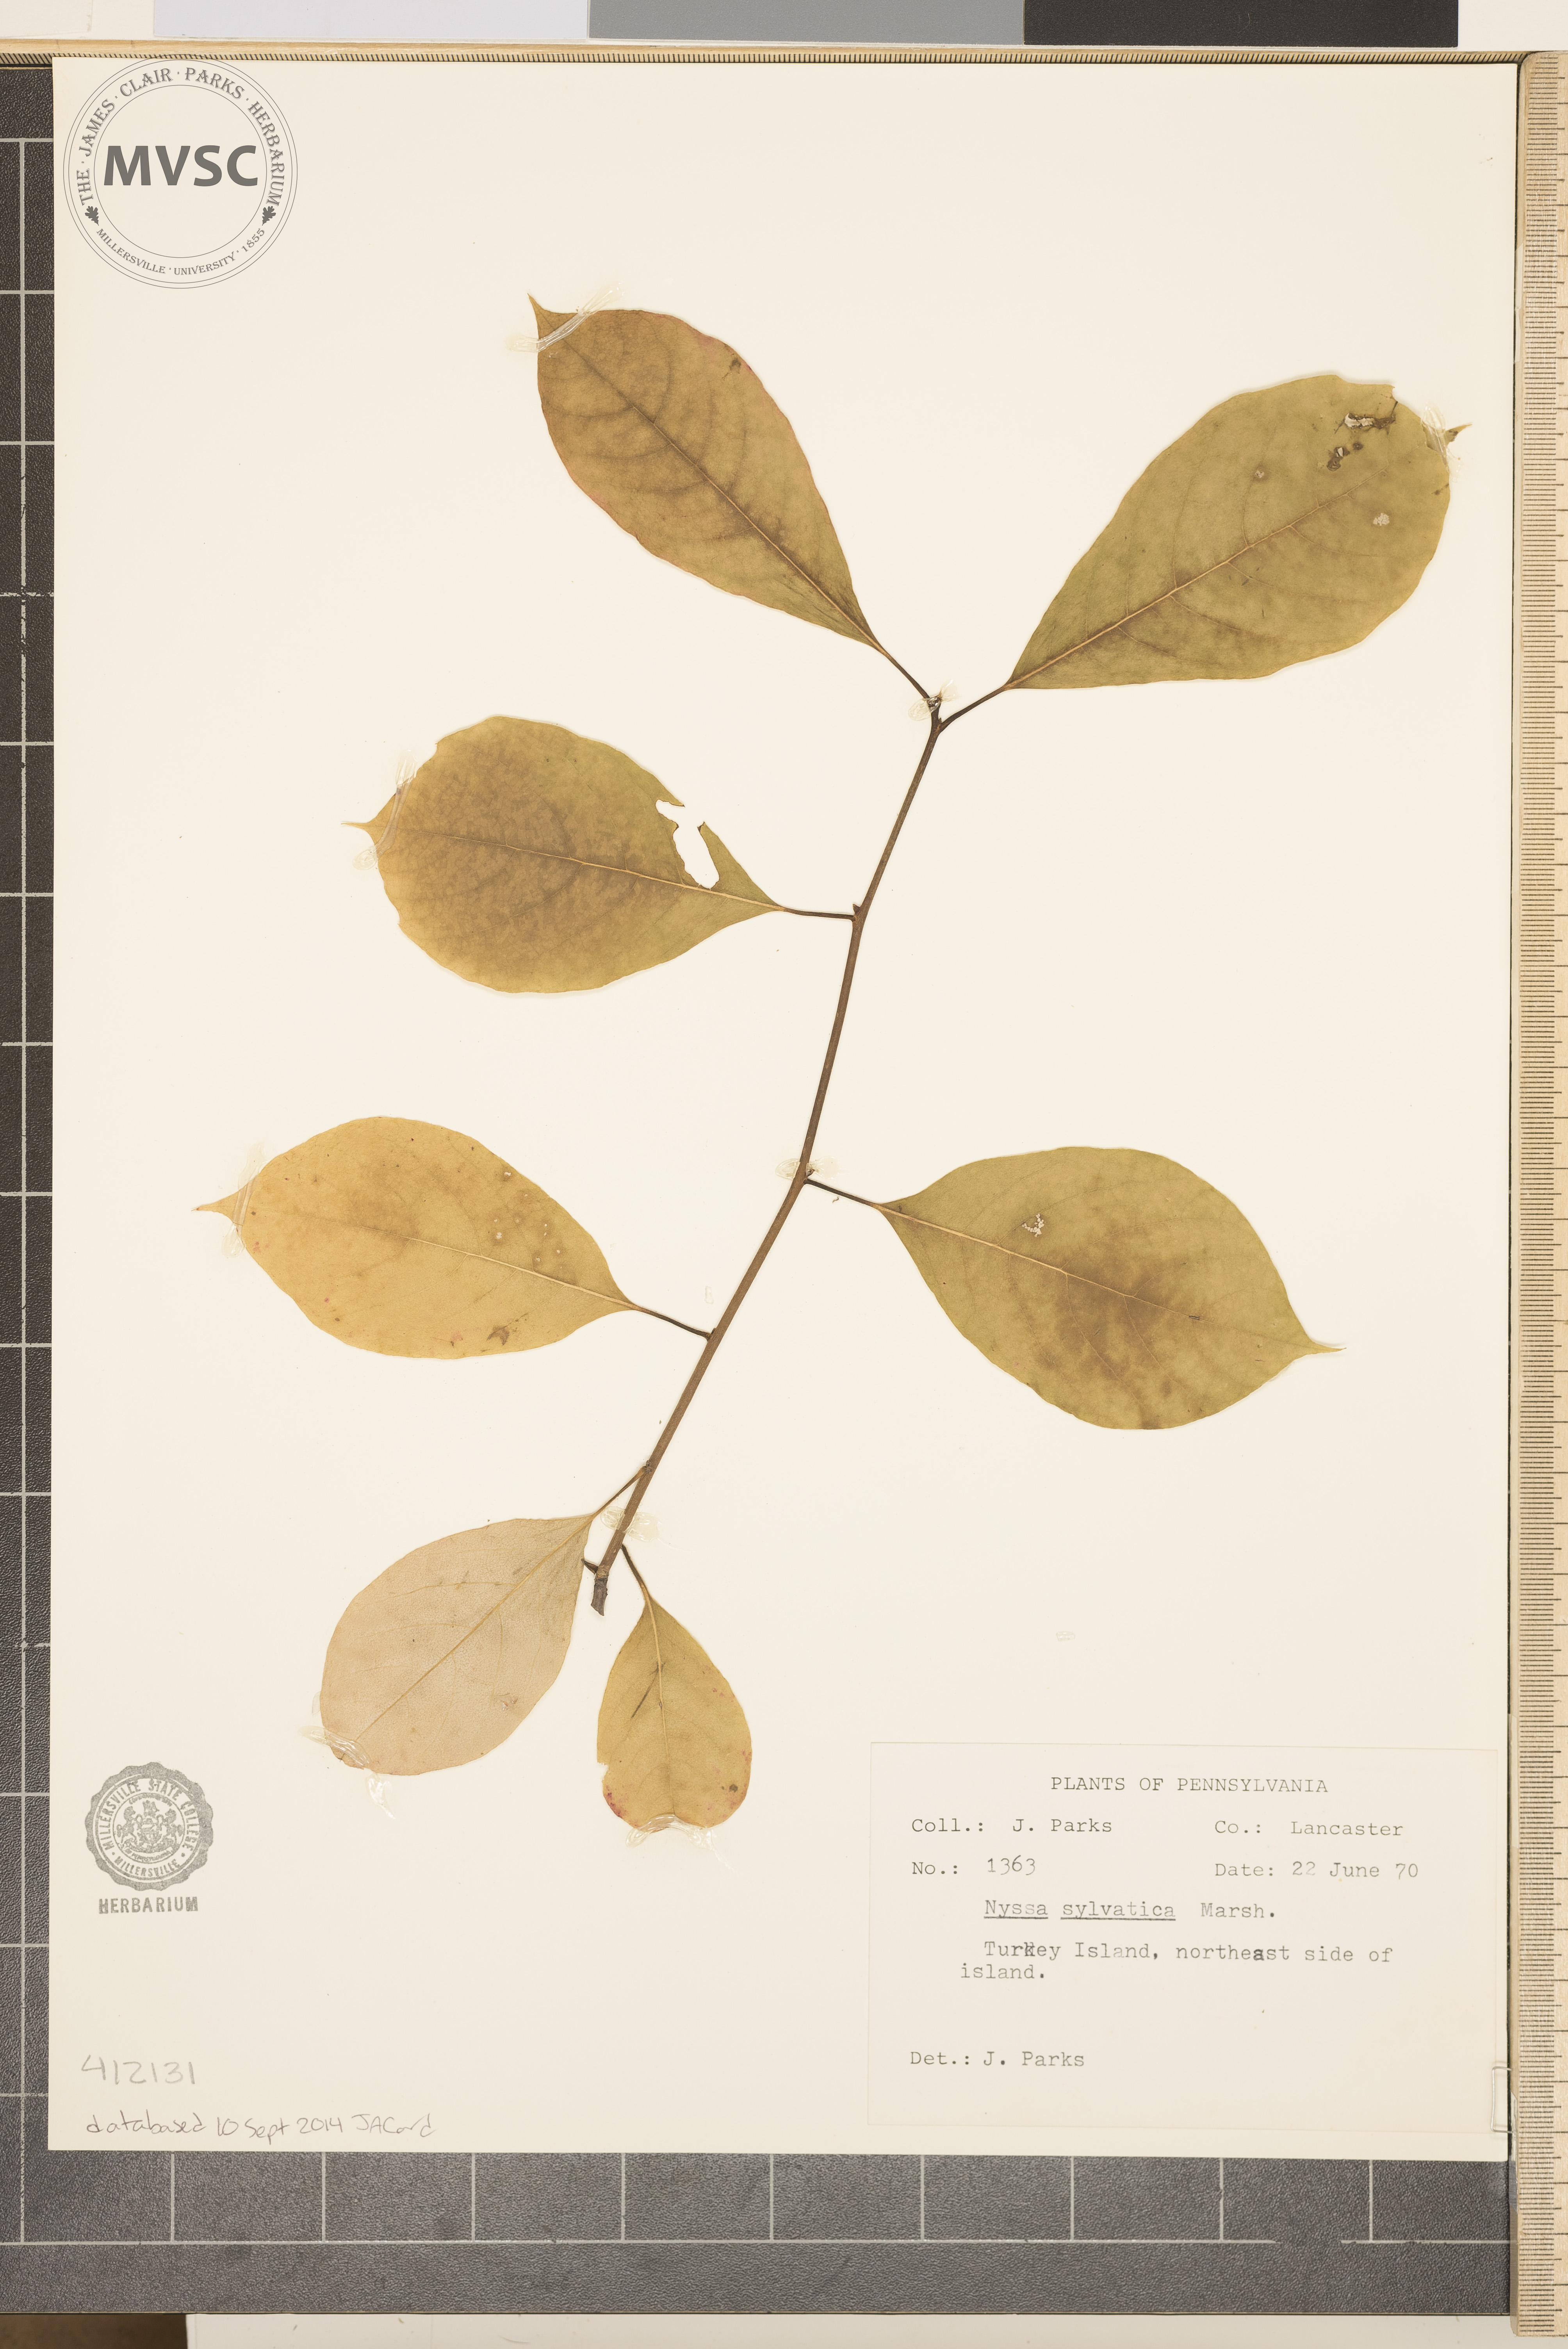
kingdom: Plantae
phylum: Tracheophyta
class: Magnoliopsida
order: Cornales
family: Nyssaceae
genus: Nyssa
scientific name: Nyssa sylvatica
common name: Black tupelo
